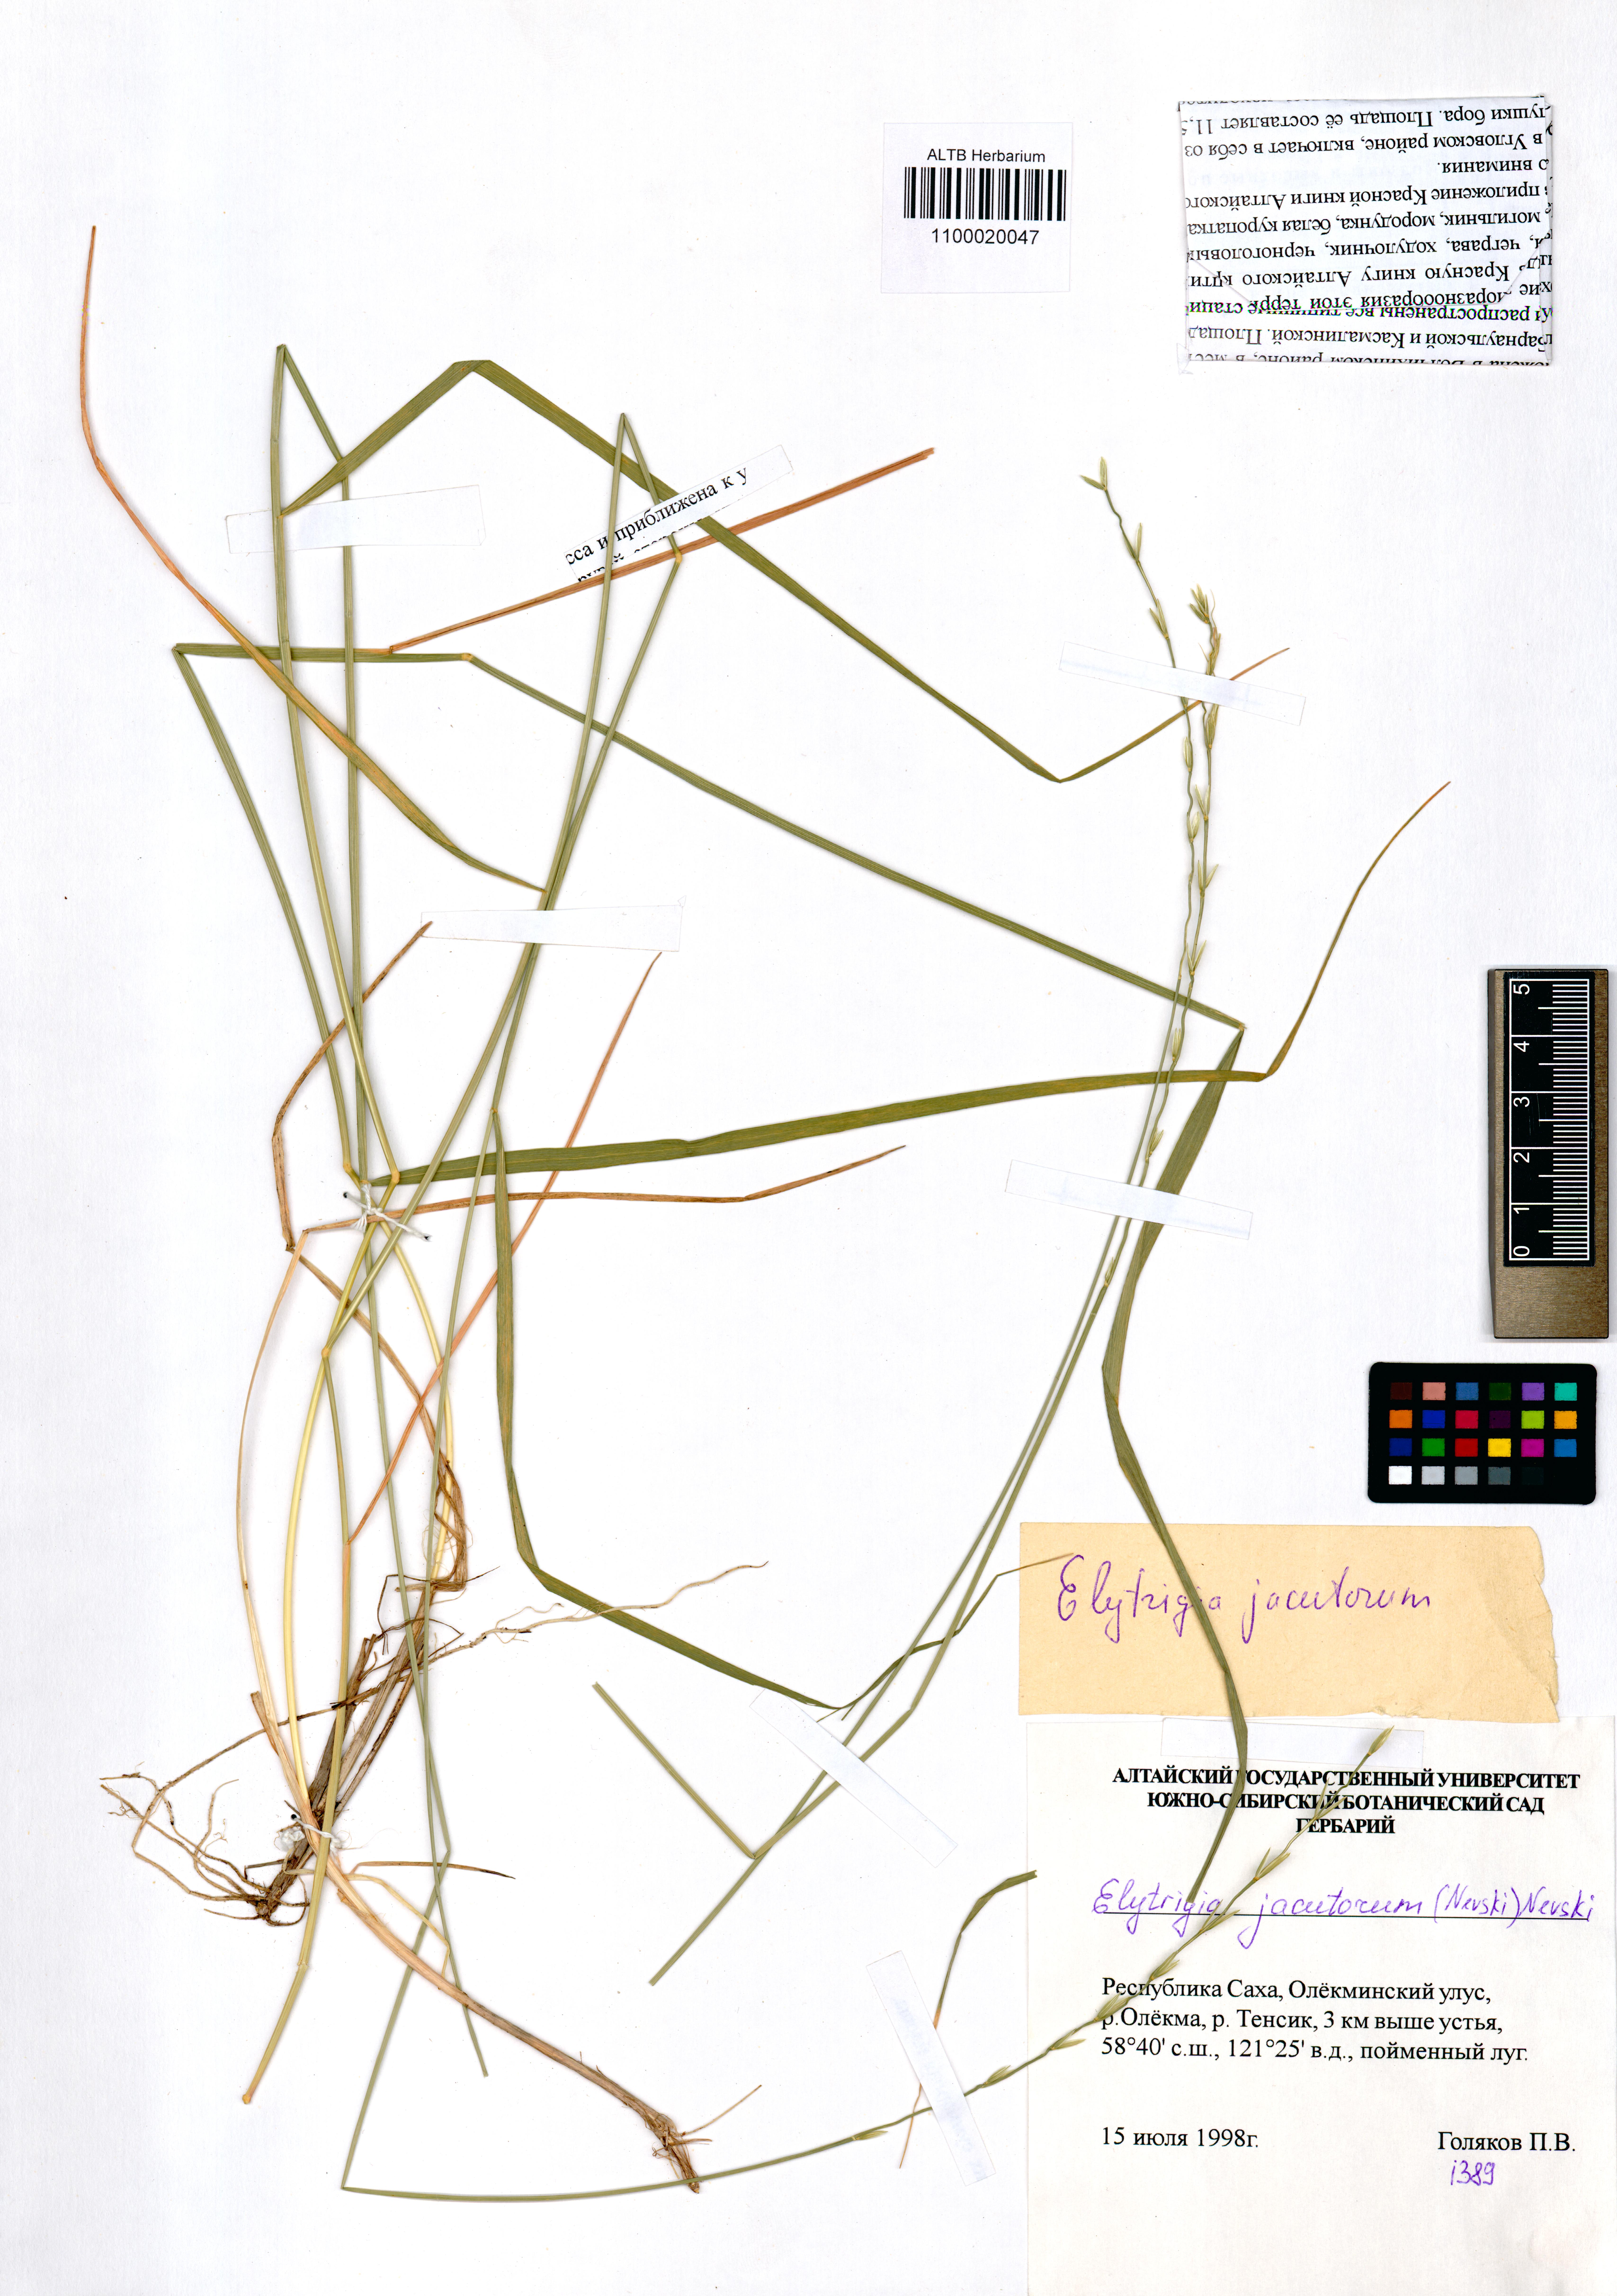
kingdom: Plantae
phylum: Tracheophyta
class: Liliopsida
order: Poales
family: Poaceae
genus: Pseudoroegneria
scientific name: Pseudoroegneria reflexiaristata
